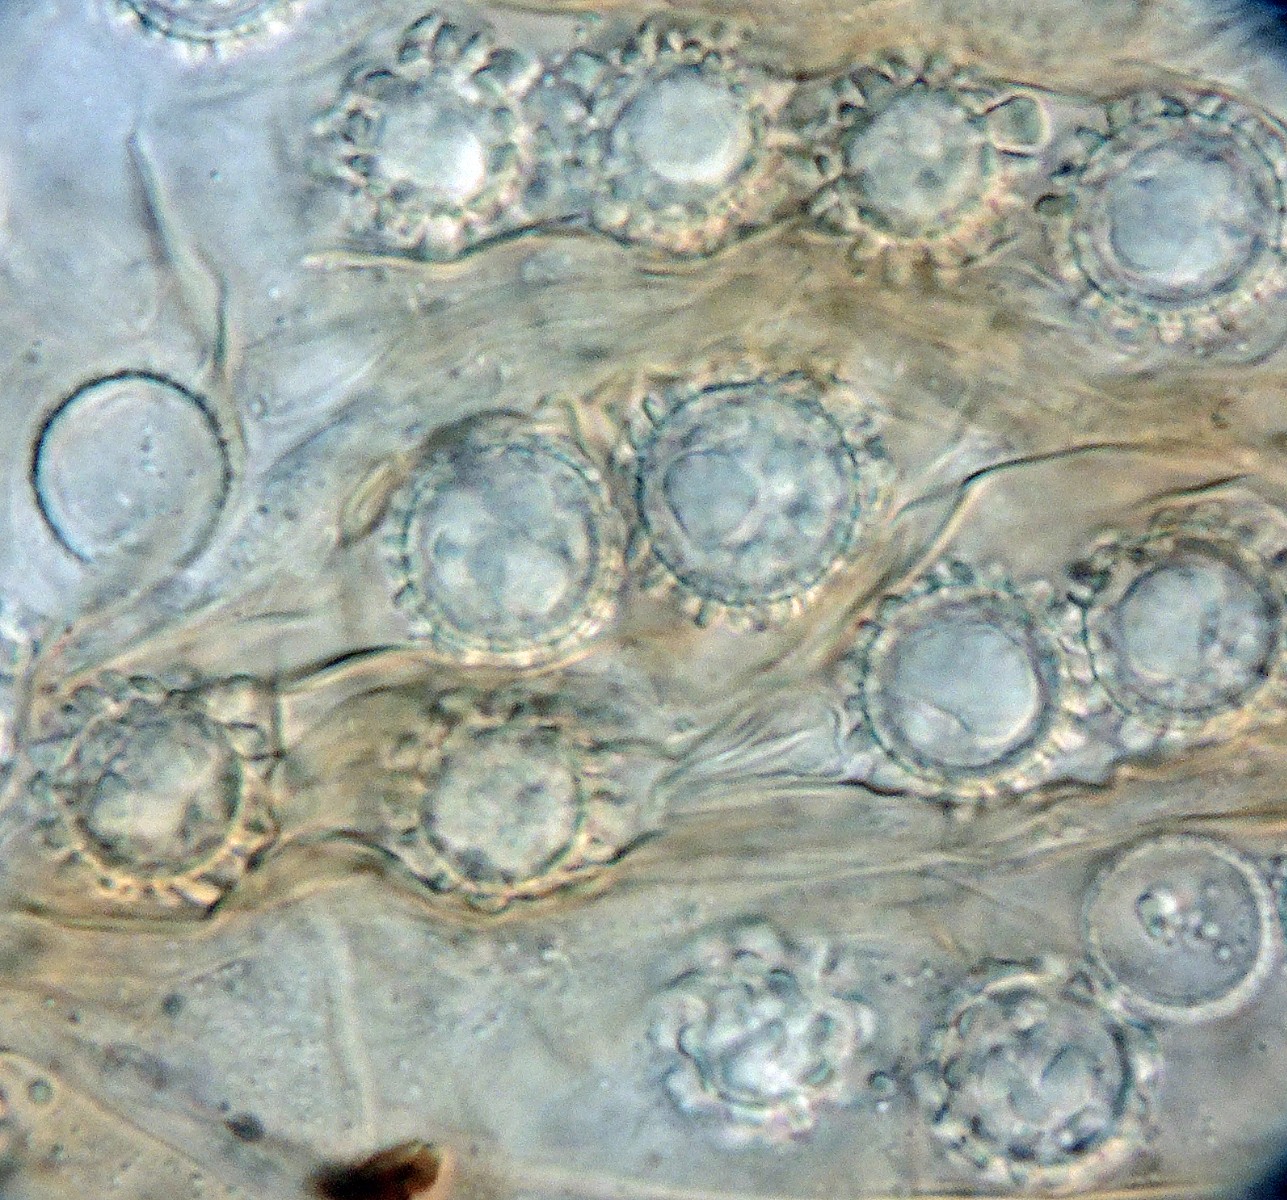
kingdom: Fungi
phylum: Ascomycota
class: Pezizomycetes
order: Pezizales
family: Pyronemataceae
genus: Plicaria
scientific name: Plicaria carbonaria
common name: pigsporet bålbæger
